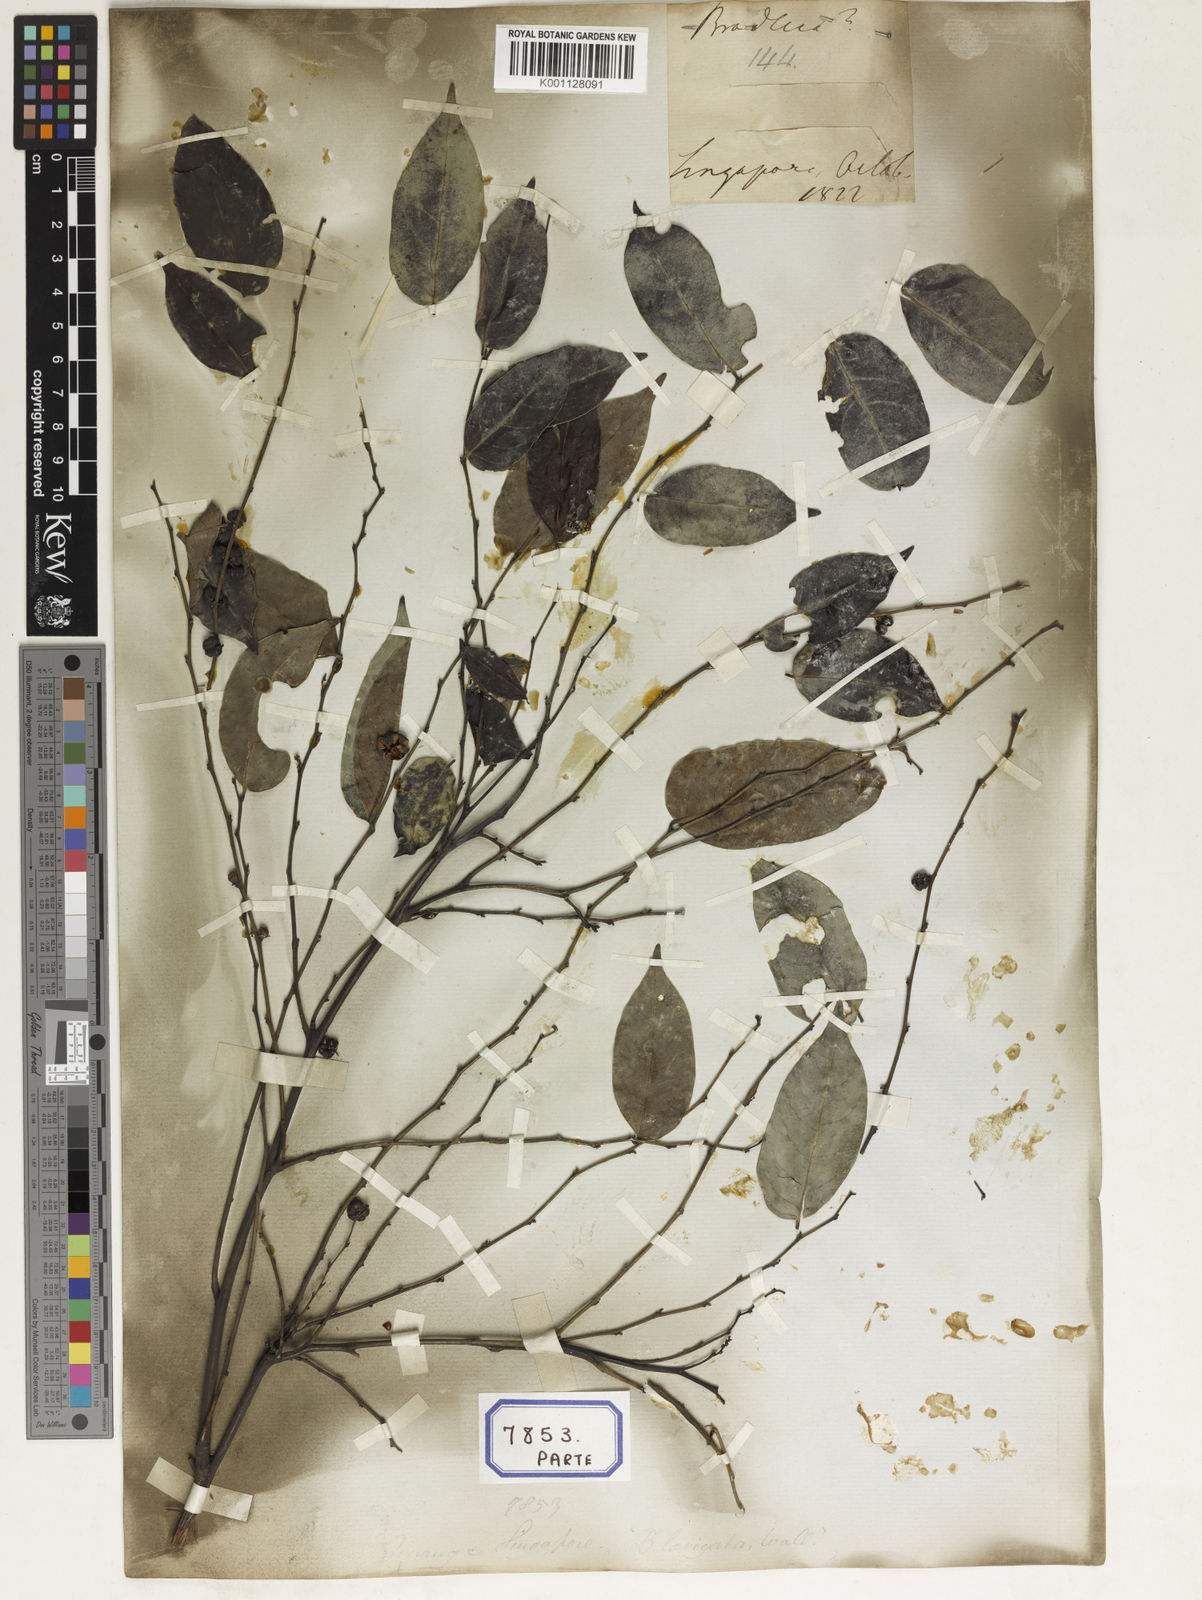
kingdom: Plantae
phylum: Tracheophyta
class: Magnoliopsida
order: Malpighiales
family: Euphorbiaceae
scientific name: Euphorbiaceae
